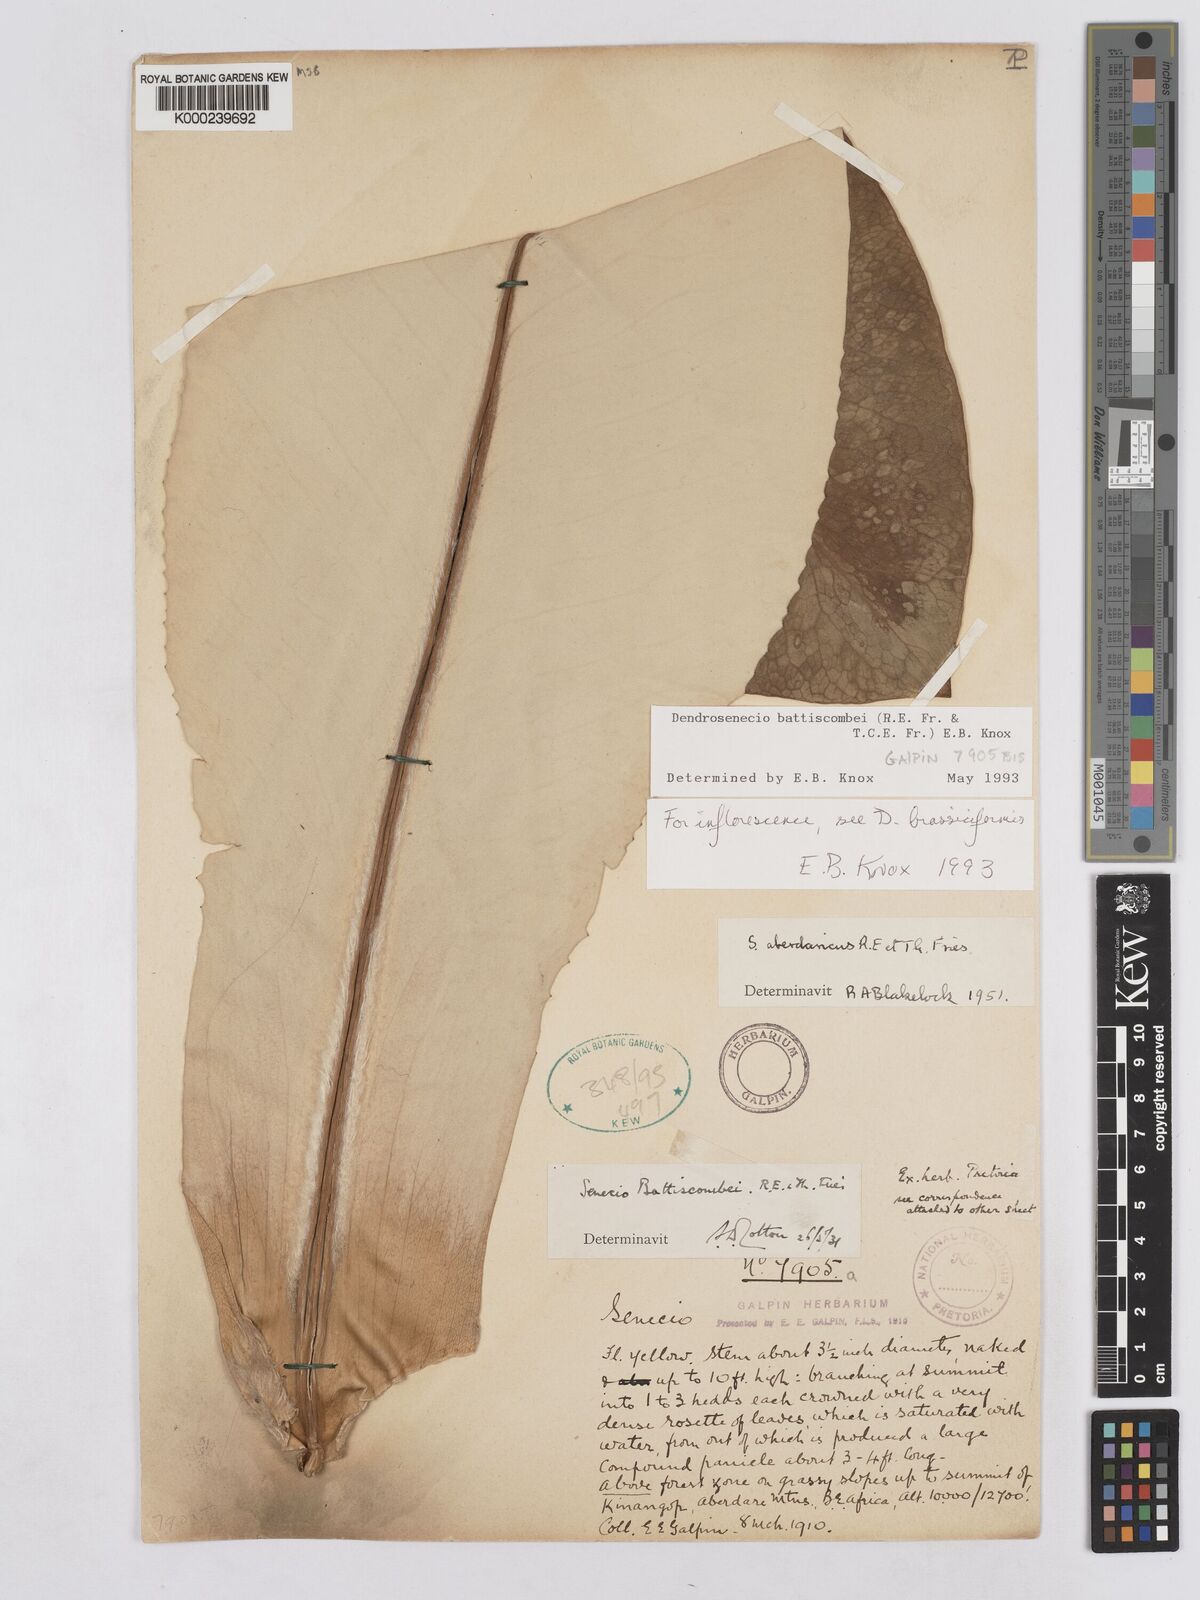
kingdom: Plantae
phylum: Tracheophyta
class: Magnoliopsida
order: Asterales
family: Asteraceae
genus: Dendrosenecio
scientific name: Dendrosenecio battiscombei
